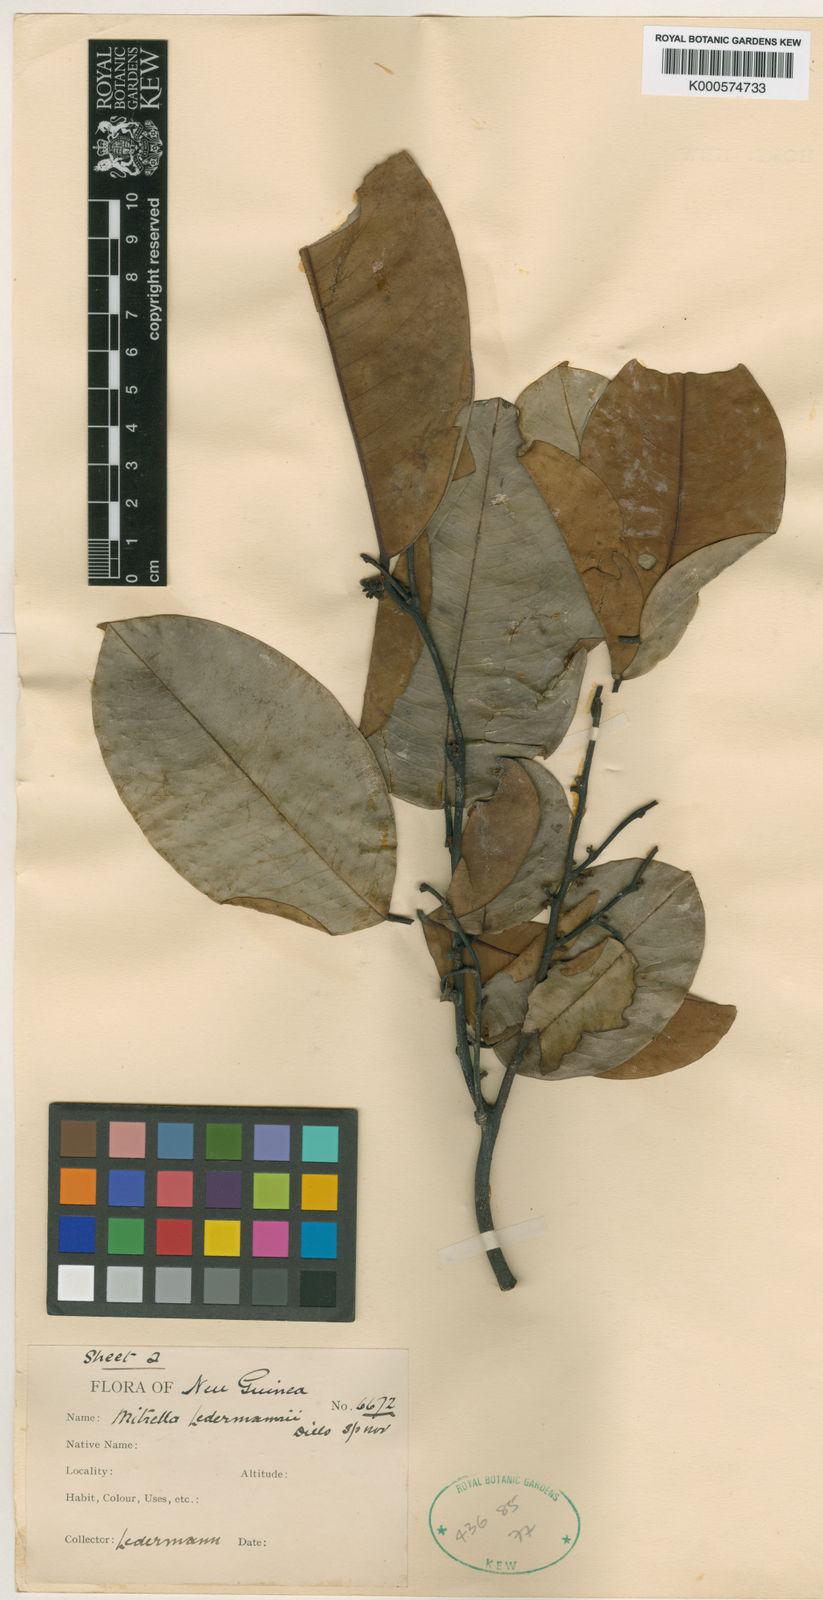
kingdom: Plantae
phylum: Tracheophyta
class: Magnoliopsida
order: Magnoliales
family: Annonaceae
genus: Mitrella
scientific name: Mitrella ledermannii
